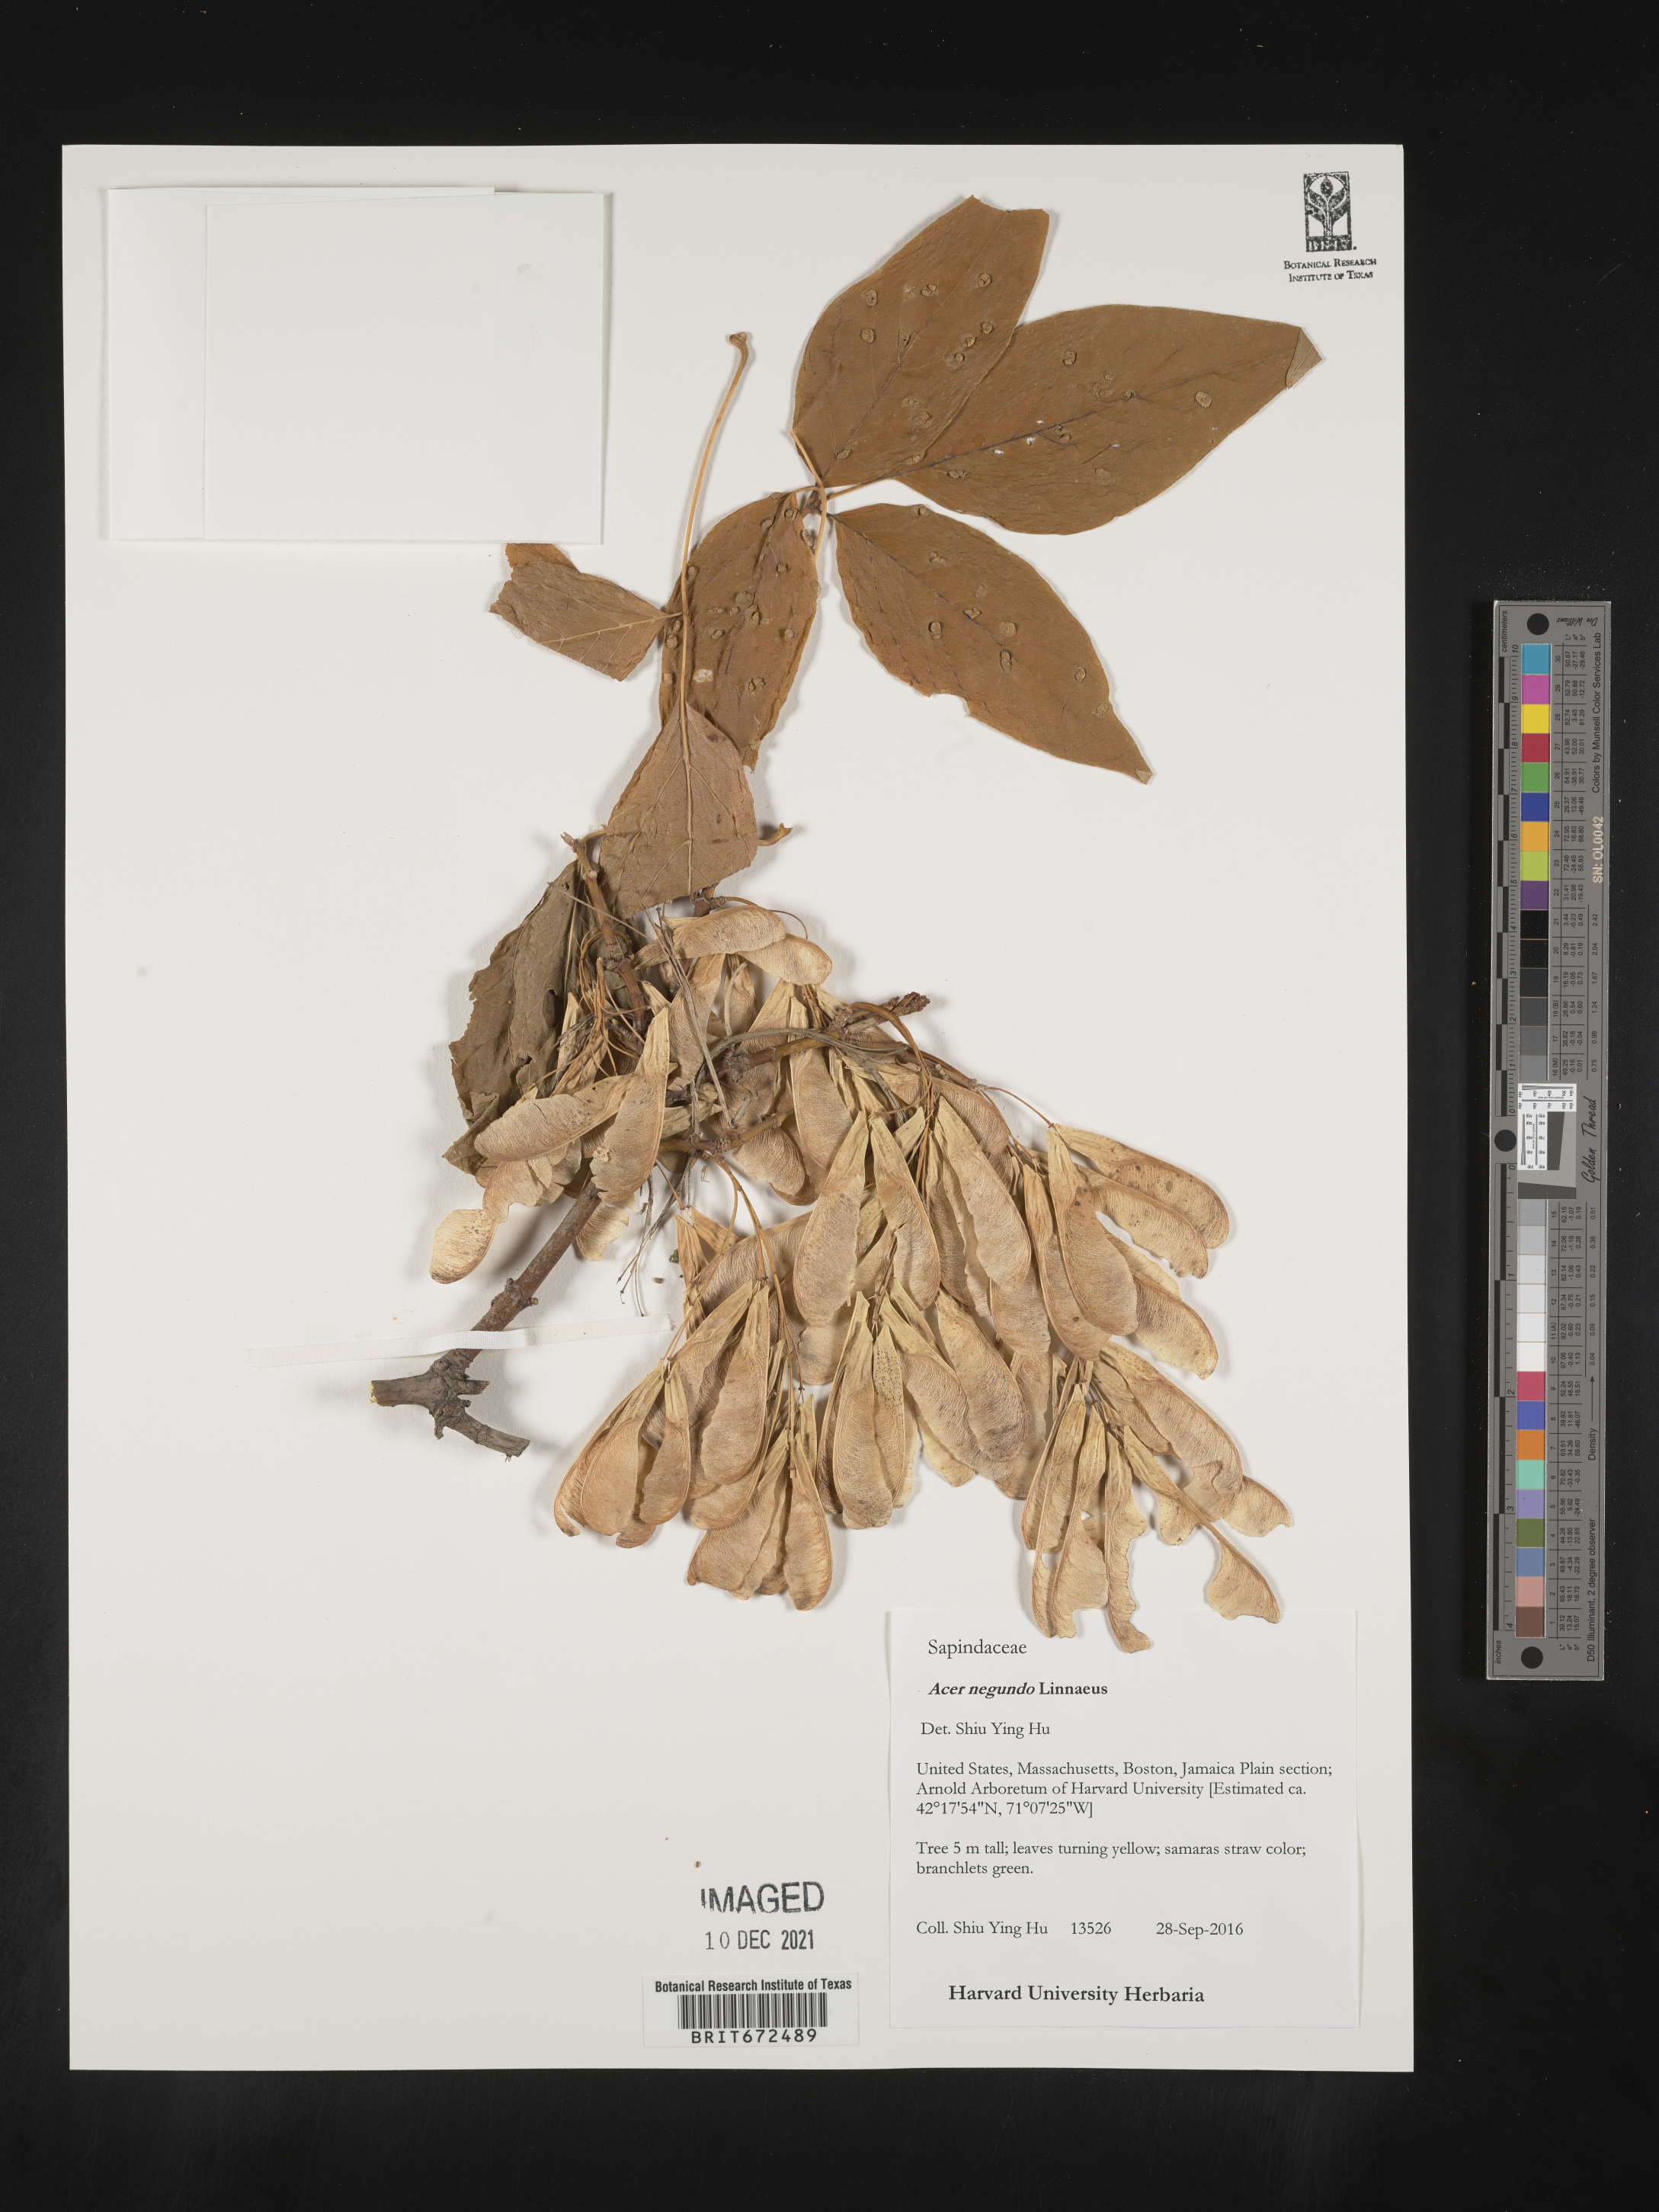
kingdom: Plantae
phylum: Tracheophyta
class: Magnoliopsida
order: Sapindales
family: Sapindaceae
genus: Acer
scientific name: Acer negundo
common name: Ashleaf maple
